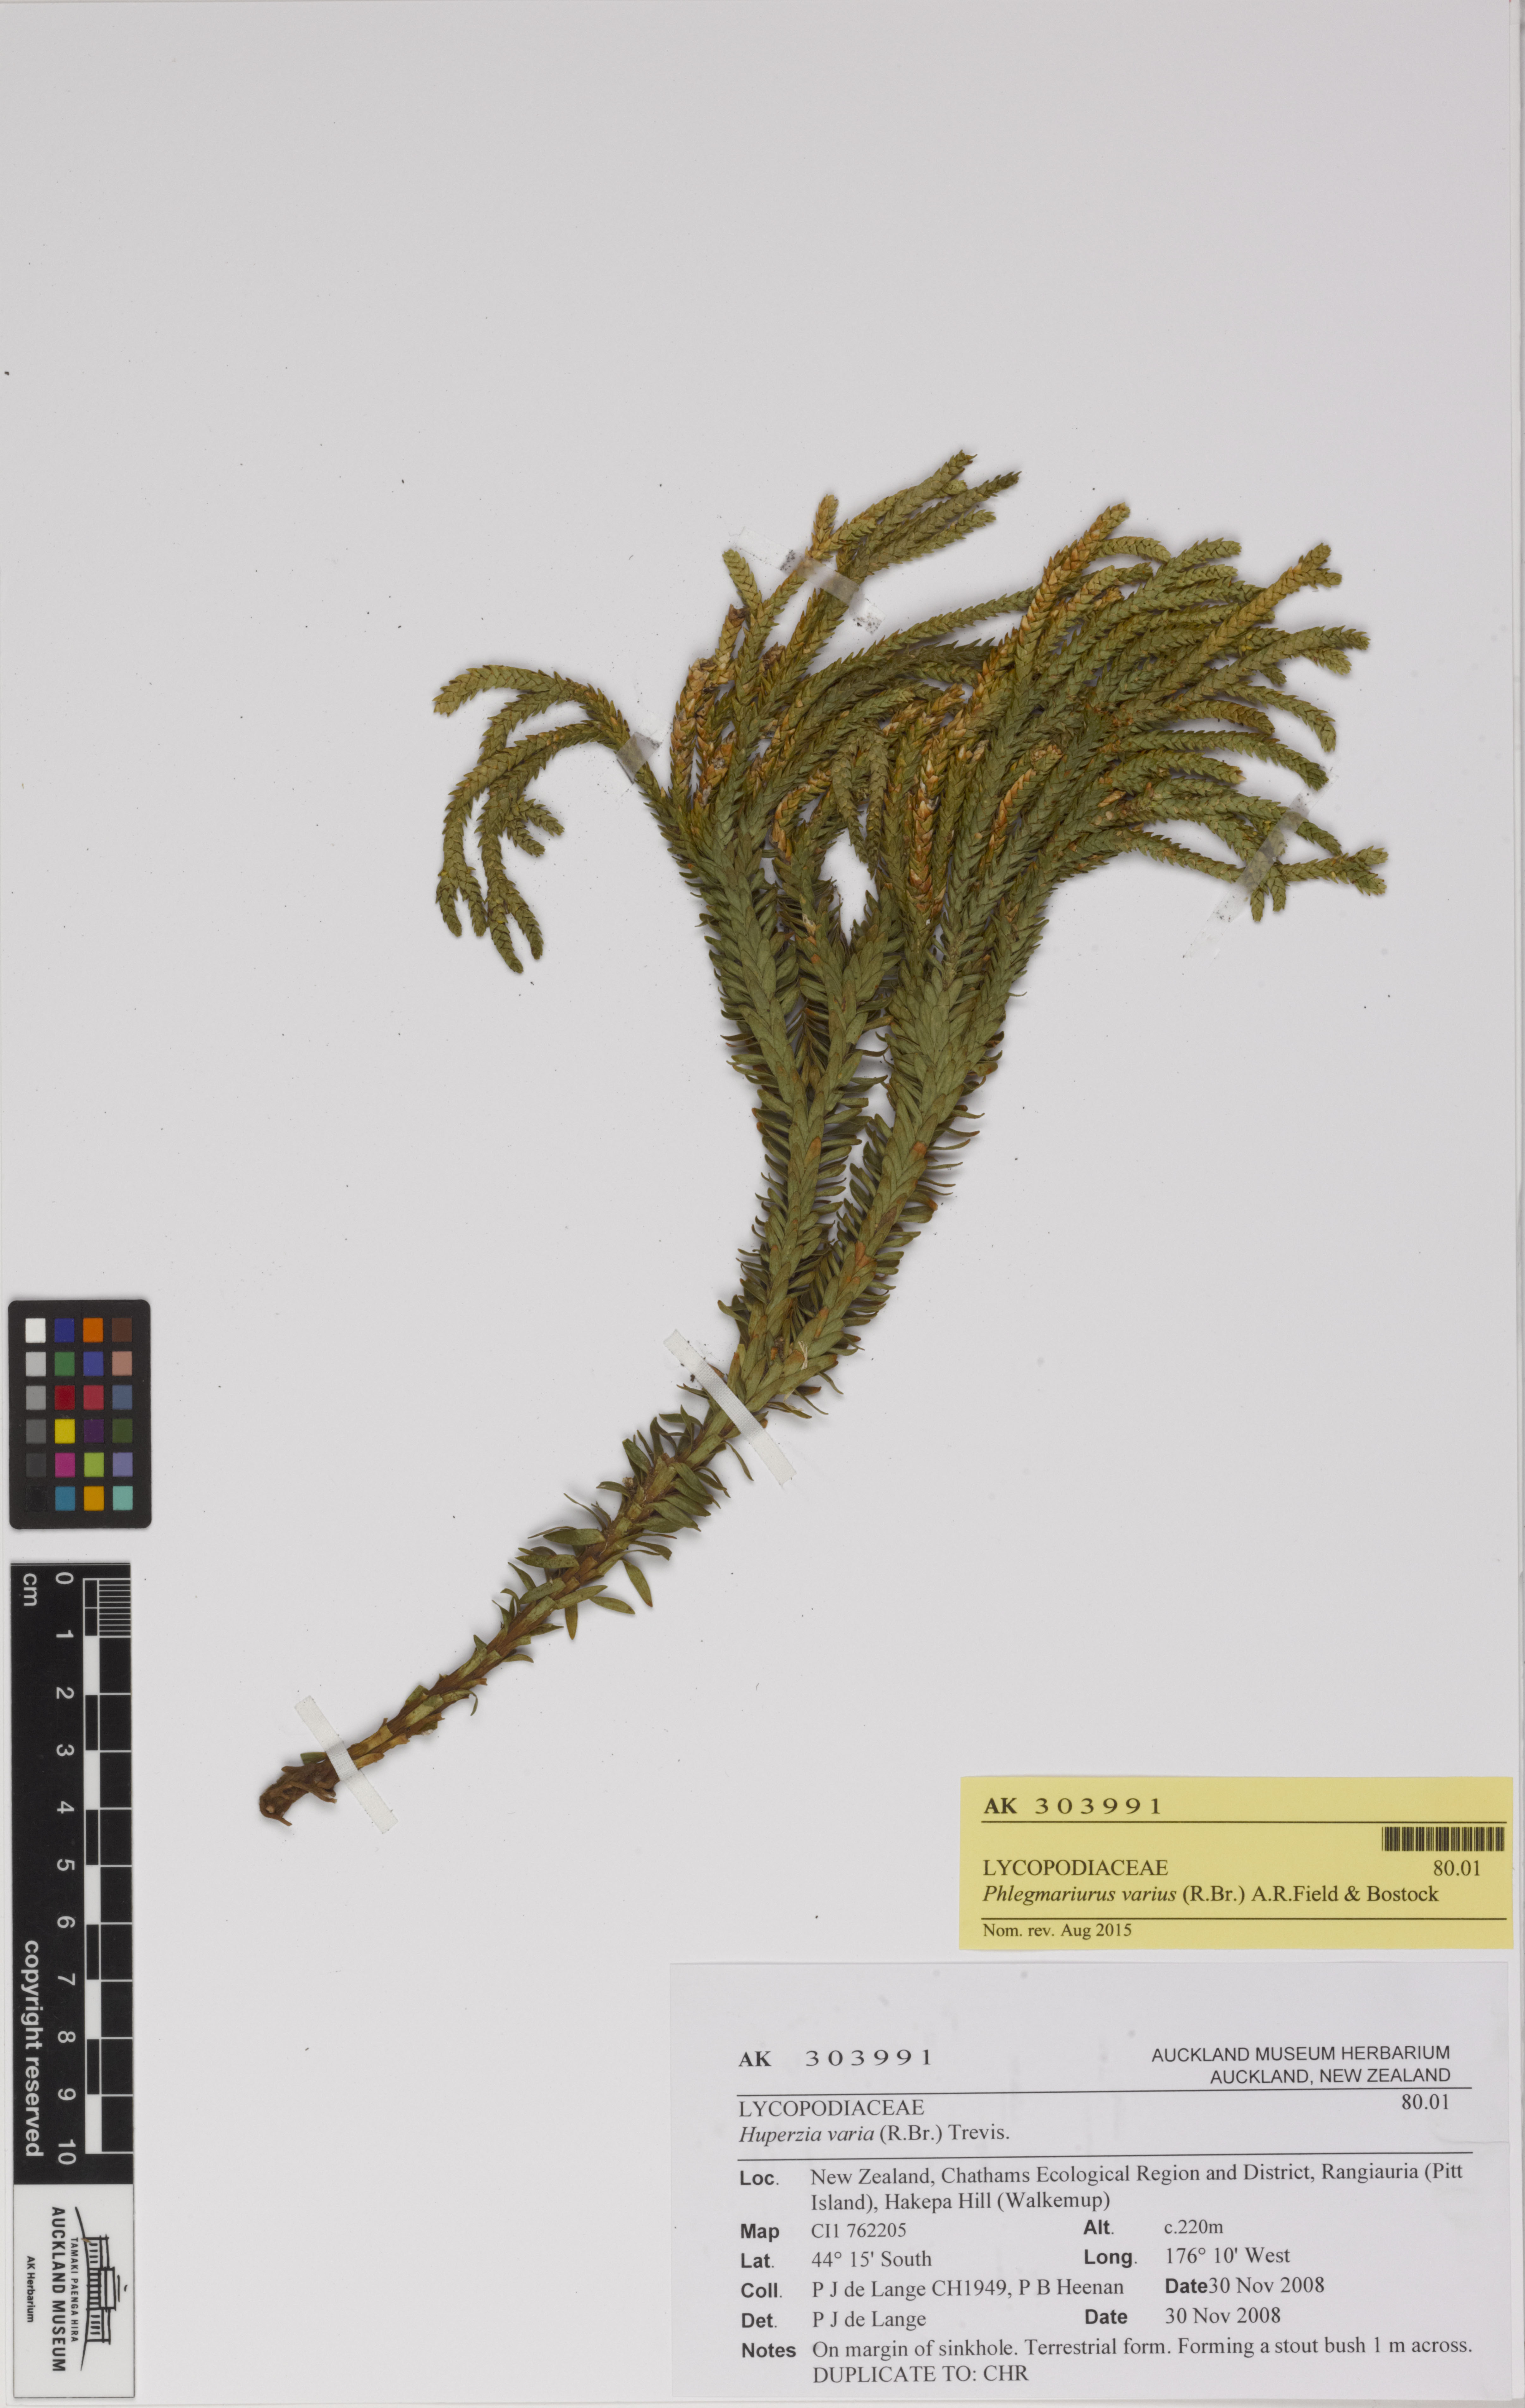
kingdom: Plantae
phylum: Tracheophyta
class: Lycopodiopsida
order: Lycopodiales
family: Lycopodiaceae
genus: Phlegmariurus
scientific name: Phlegmariurus varius
